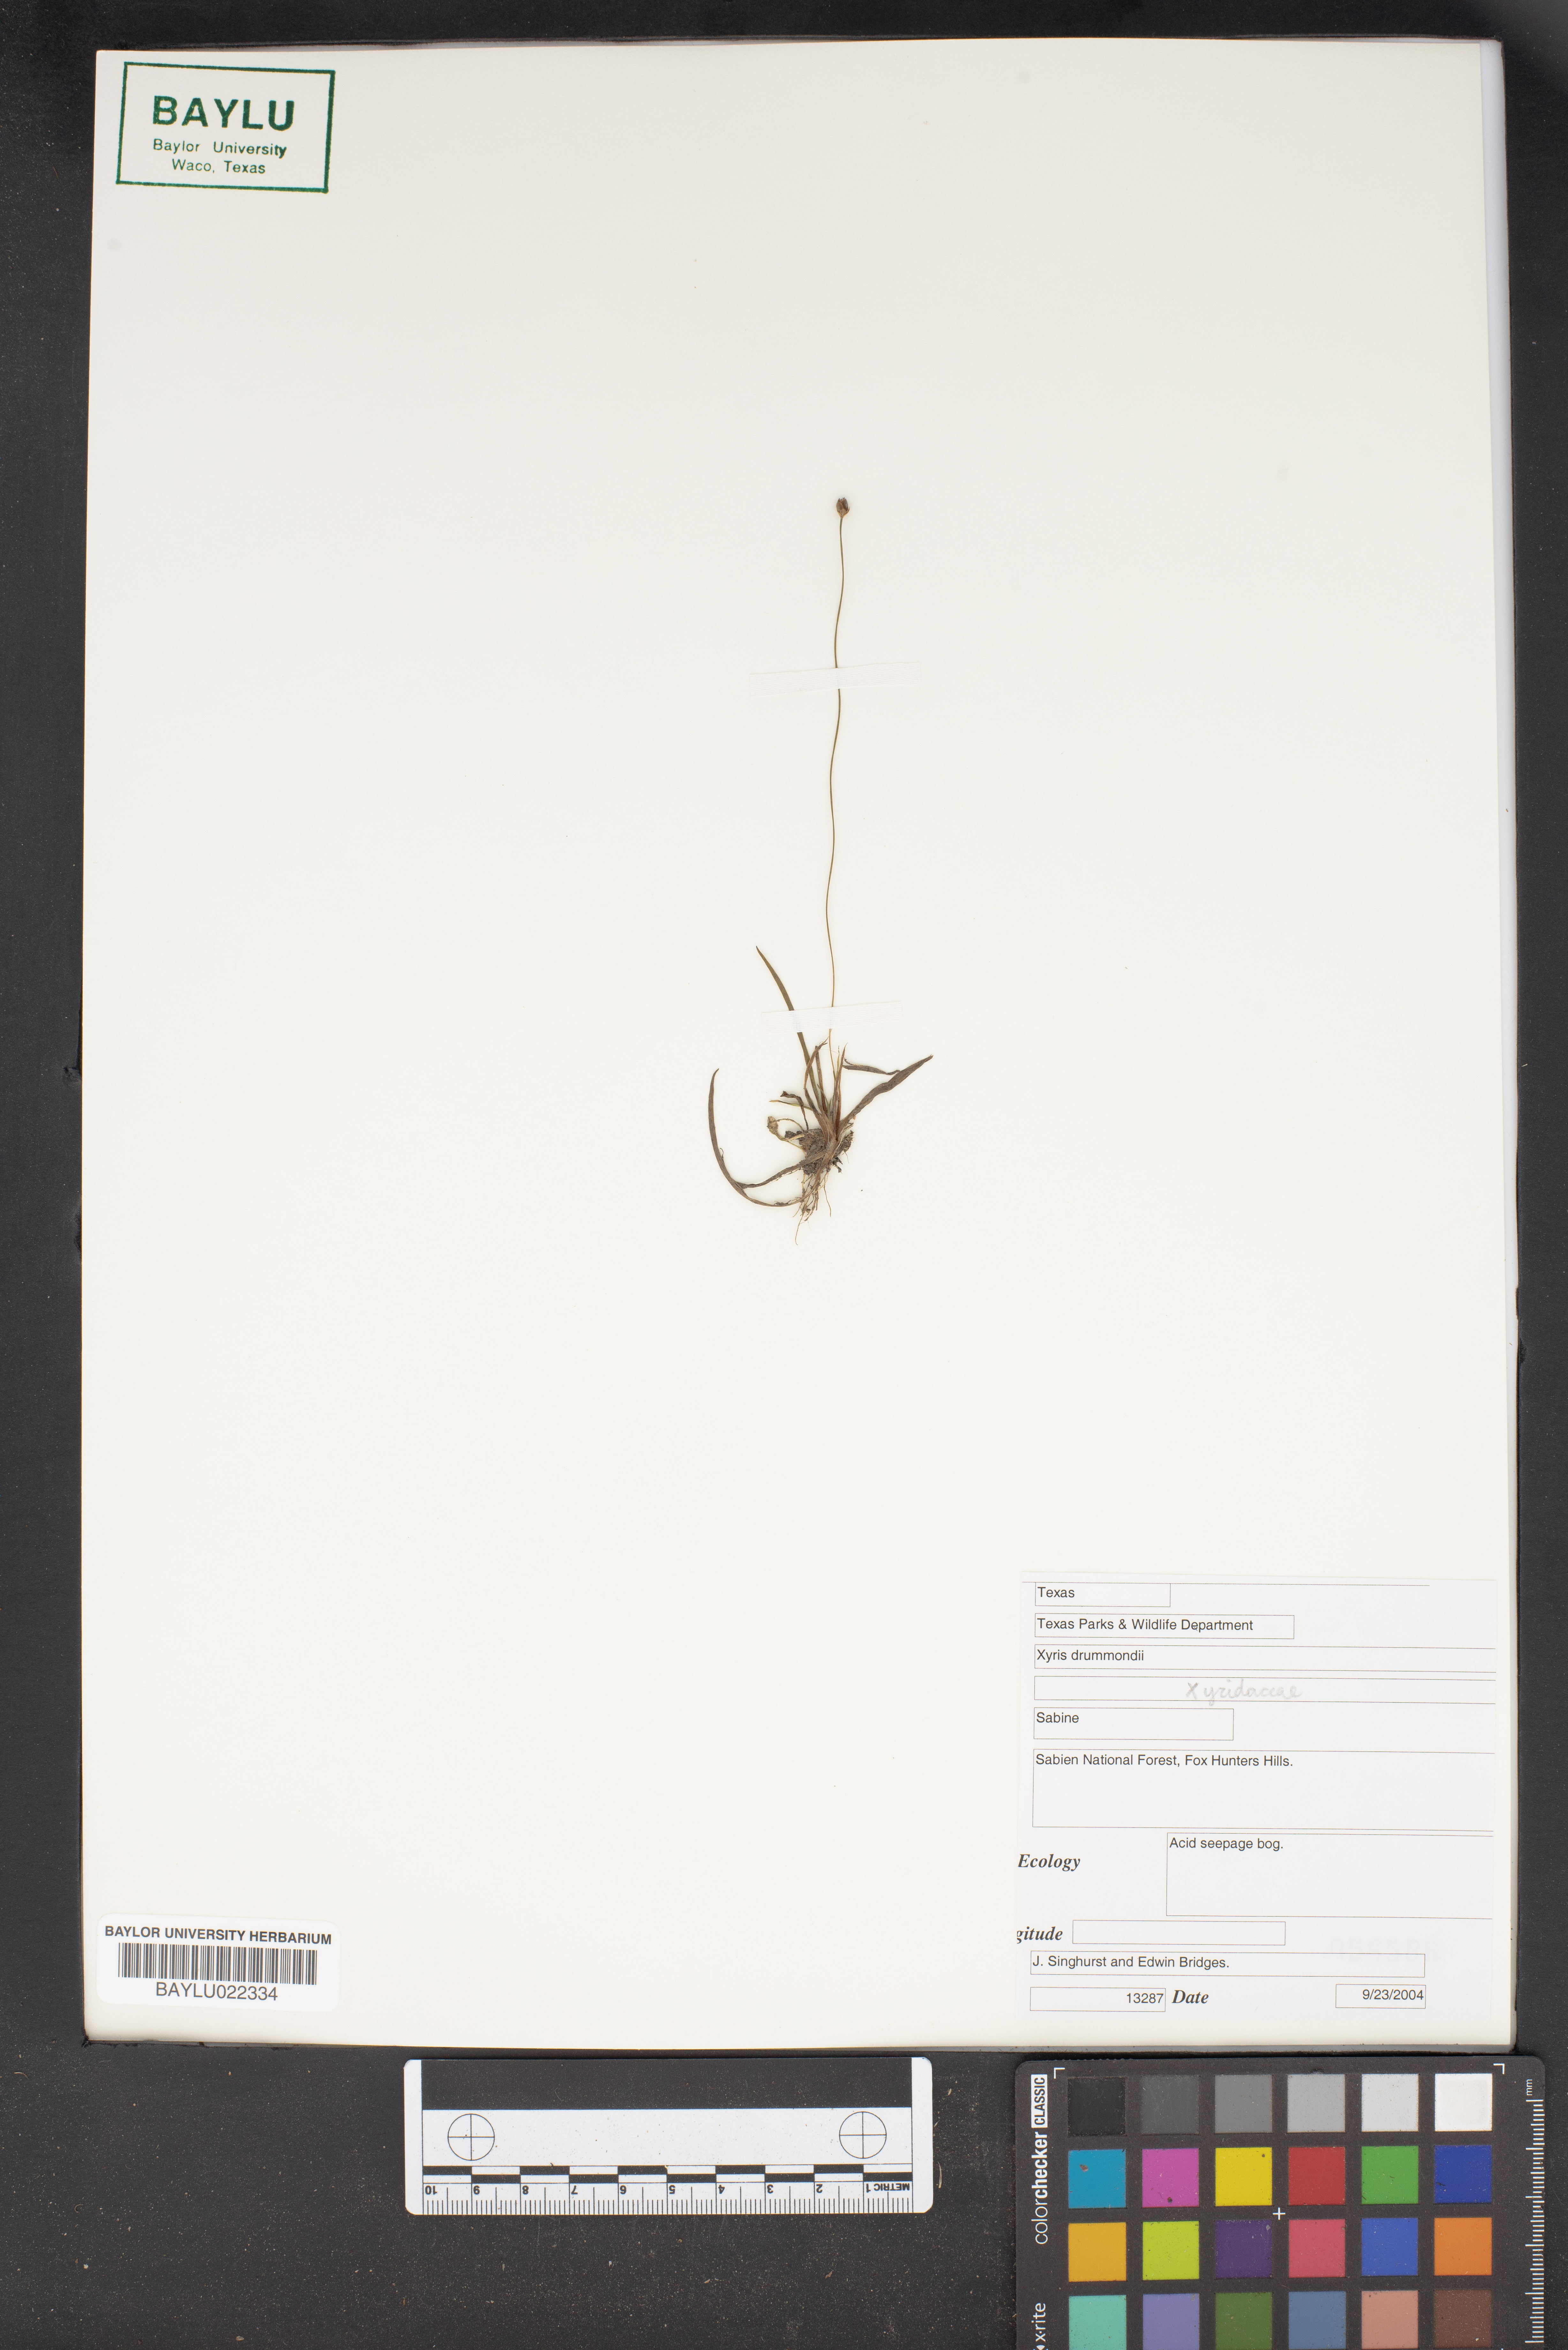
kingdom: Plantae
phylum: Tracheophyta
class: Liliopsida
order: Poales
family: Xyridaceae
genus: Xyris
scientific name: Xyris drummondii
